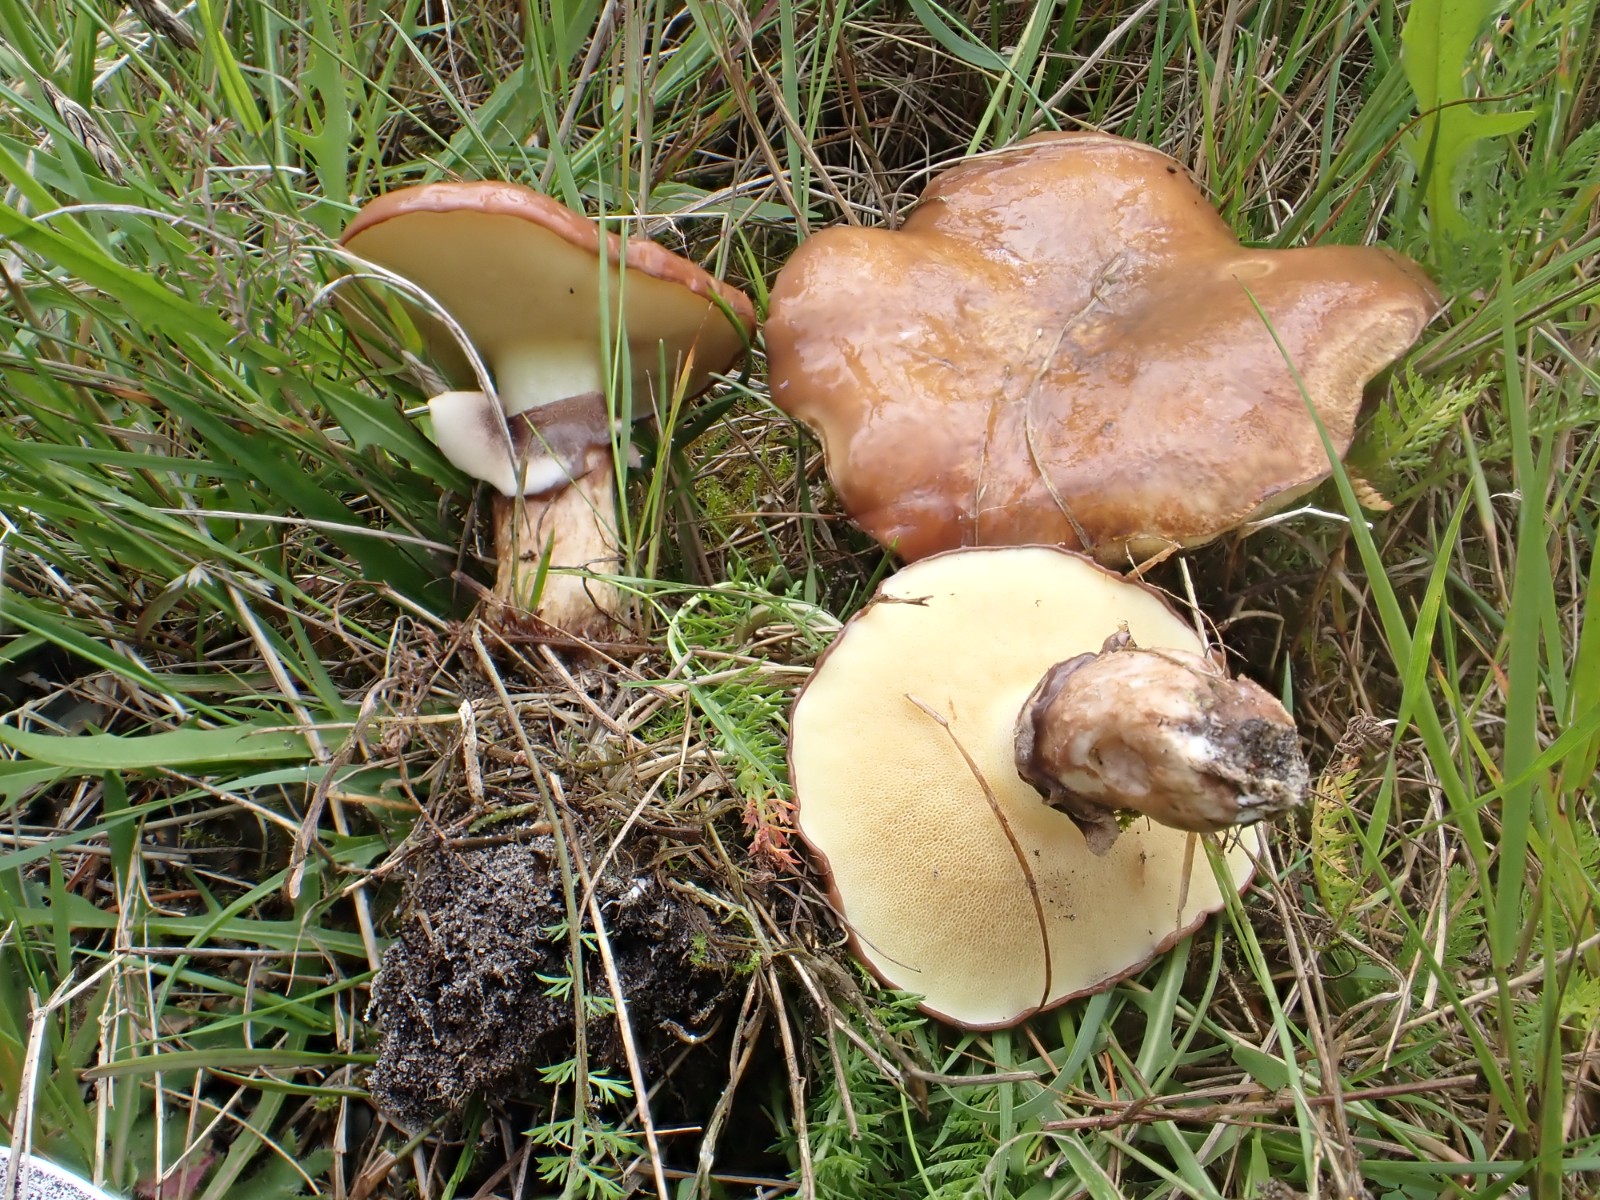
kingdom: Fungi
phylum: Basidiomycota
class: Agaricomycetes
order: Boletales
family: Suillaceae
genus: Suillus
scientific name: Suillus luteus
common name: brungul slimrørhat
